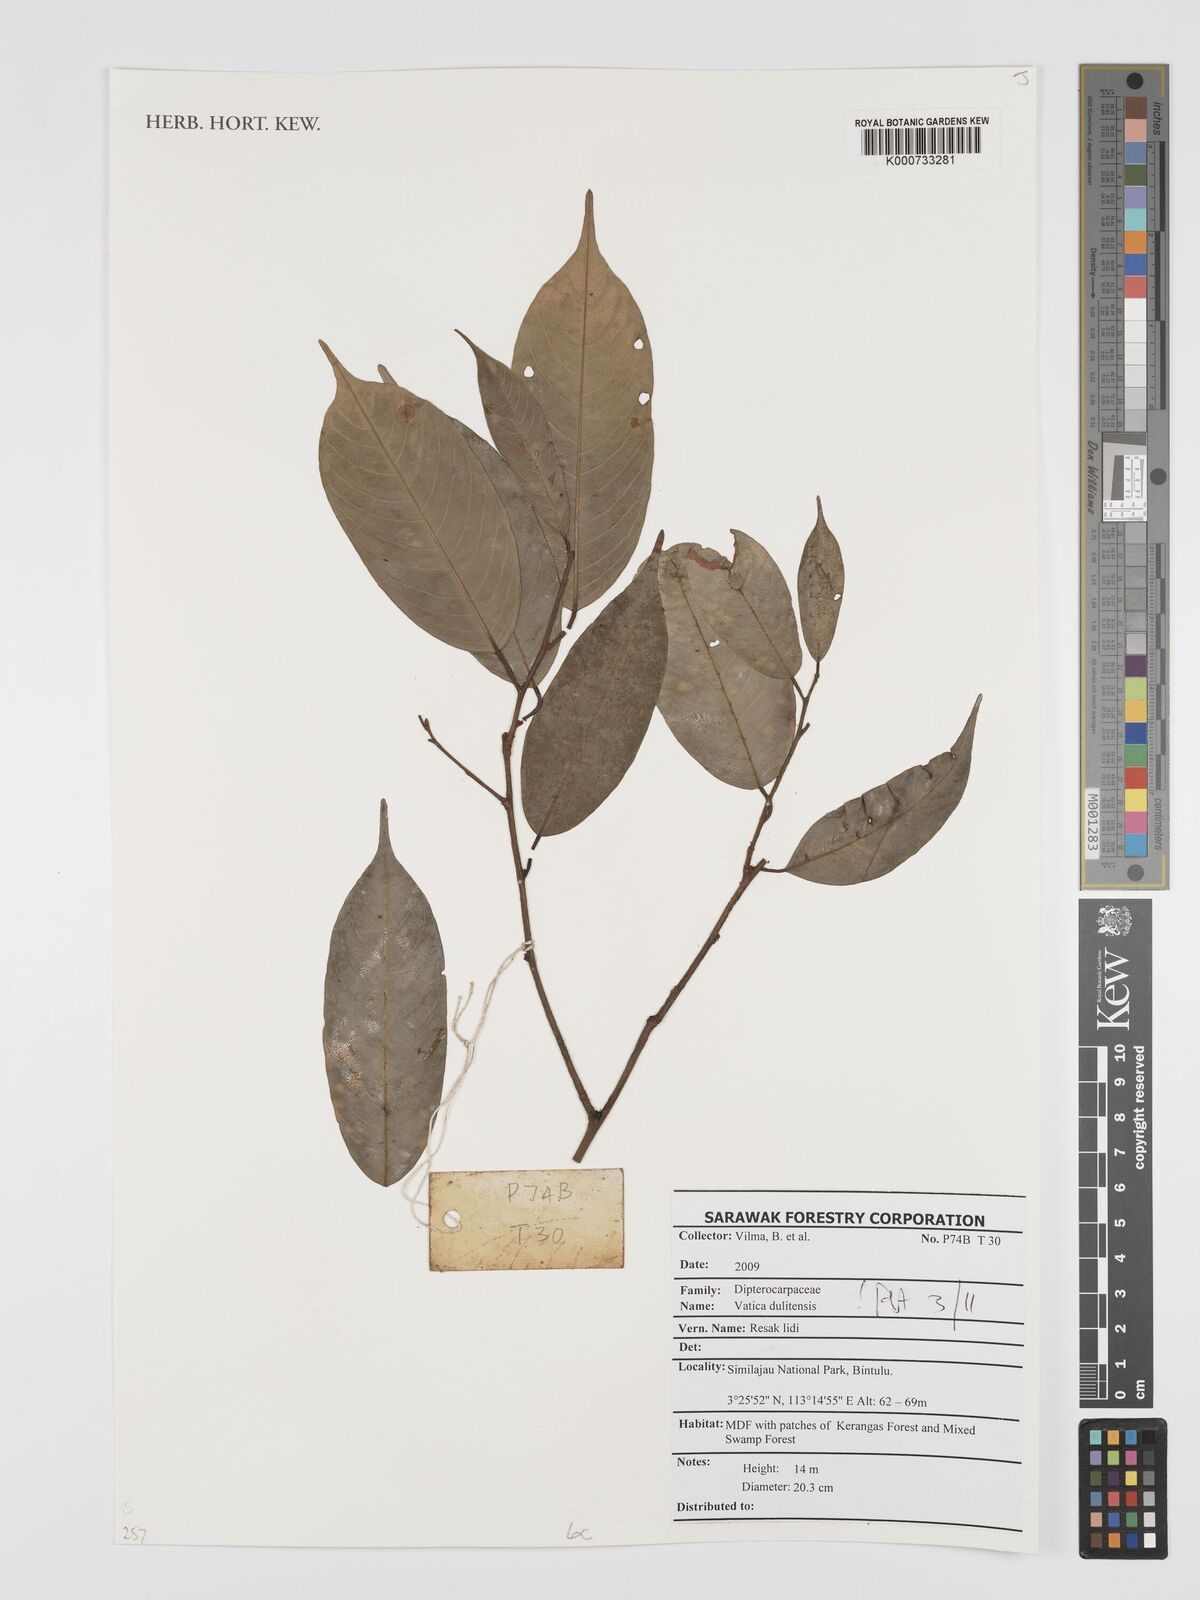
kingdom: Plantae
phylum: Tracheophyta
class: Magnoliopsida
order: Malvales
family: Dipterocarpaceae
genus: Vatica
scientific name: Vatica dulitensis
